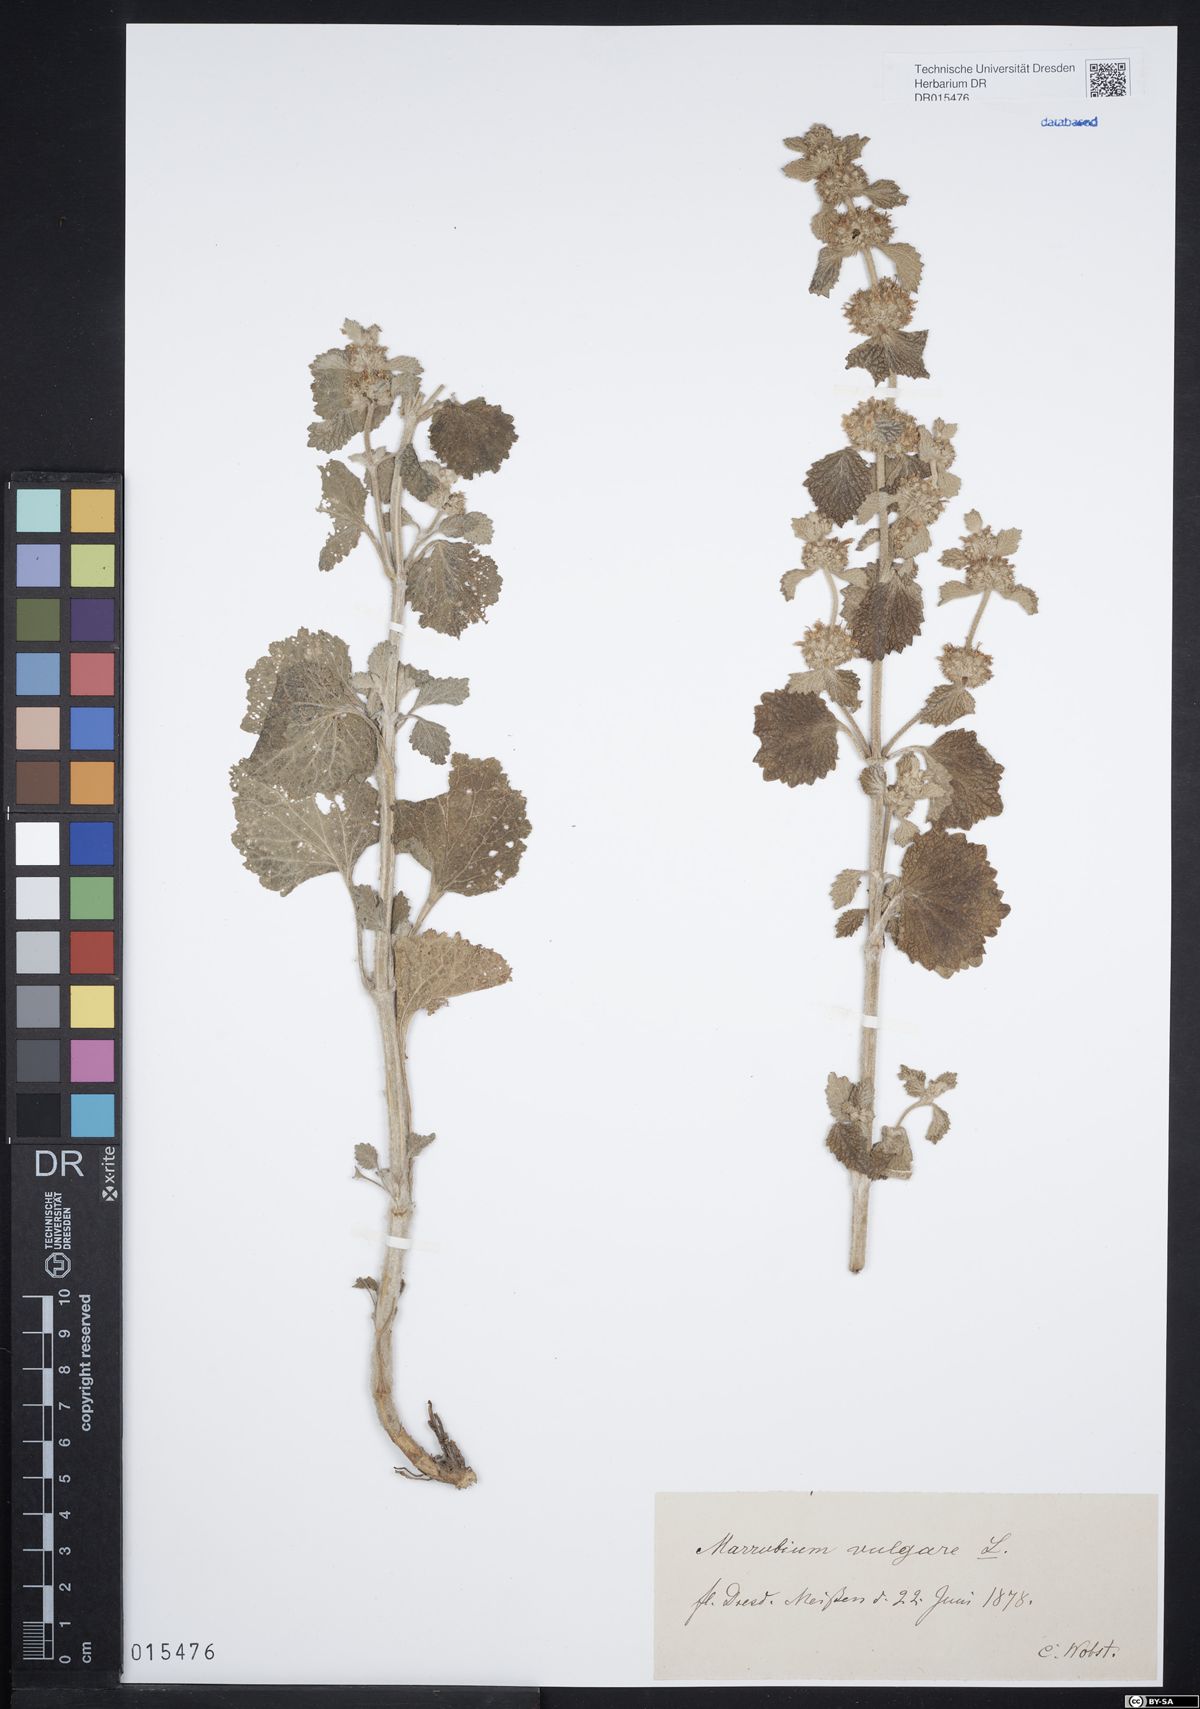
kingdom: Plantae
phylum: Tracheophyta
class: Magnoliopsida
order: Lamiales
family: Lamiaceae
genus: Marrubium
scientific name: Marrubium vulgare
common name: Horehound
